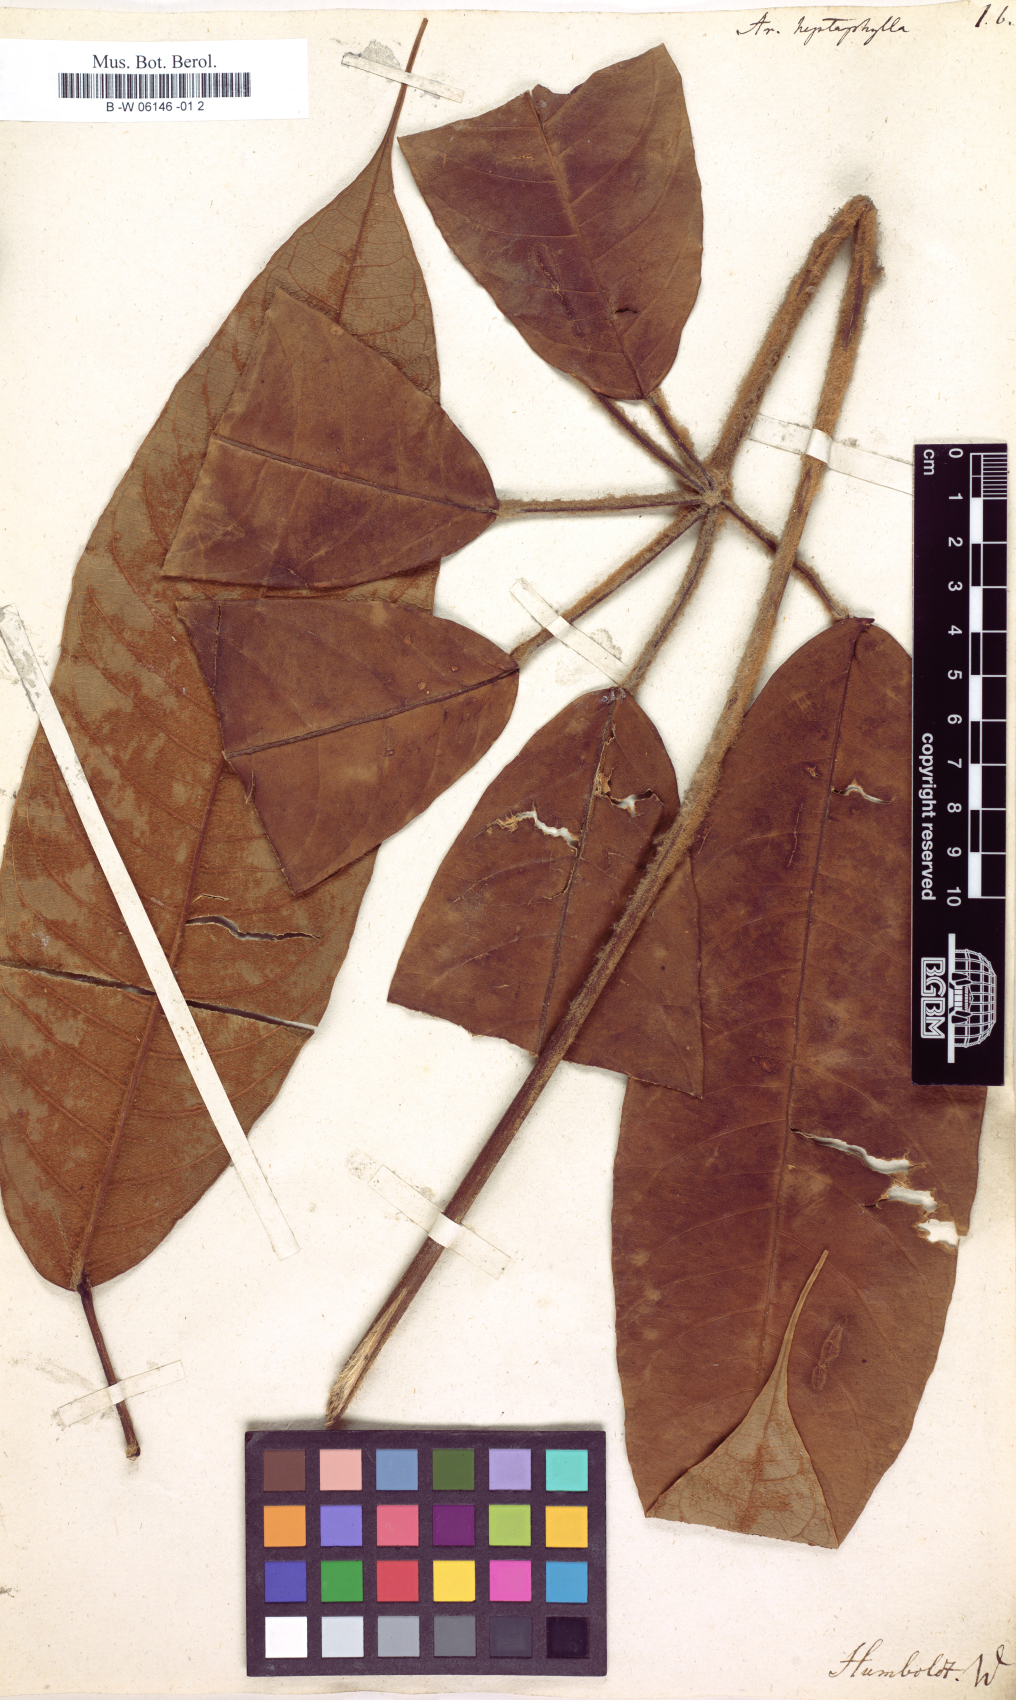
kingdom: Plantae
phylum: Tracheophyta
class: Magnoliopsida
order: Apiales
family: Araliaceae
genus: Heptapleurum
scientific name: Heptapleurum heptaphyllum
